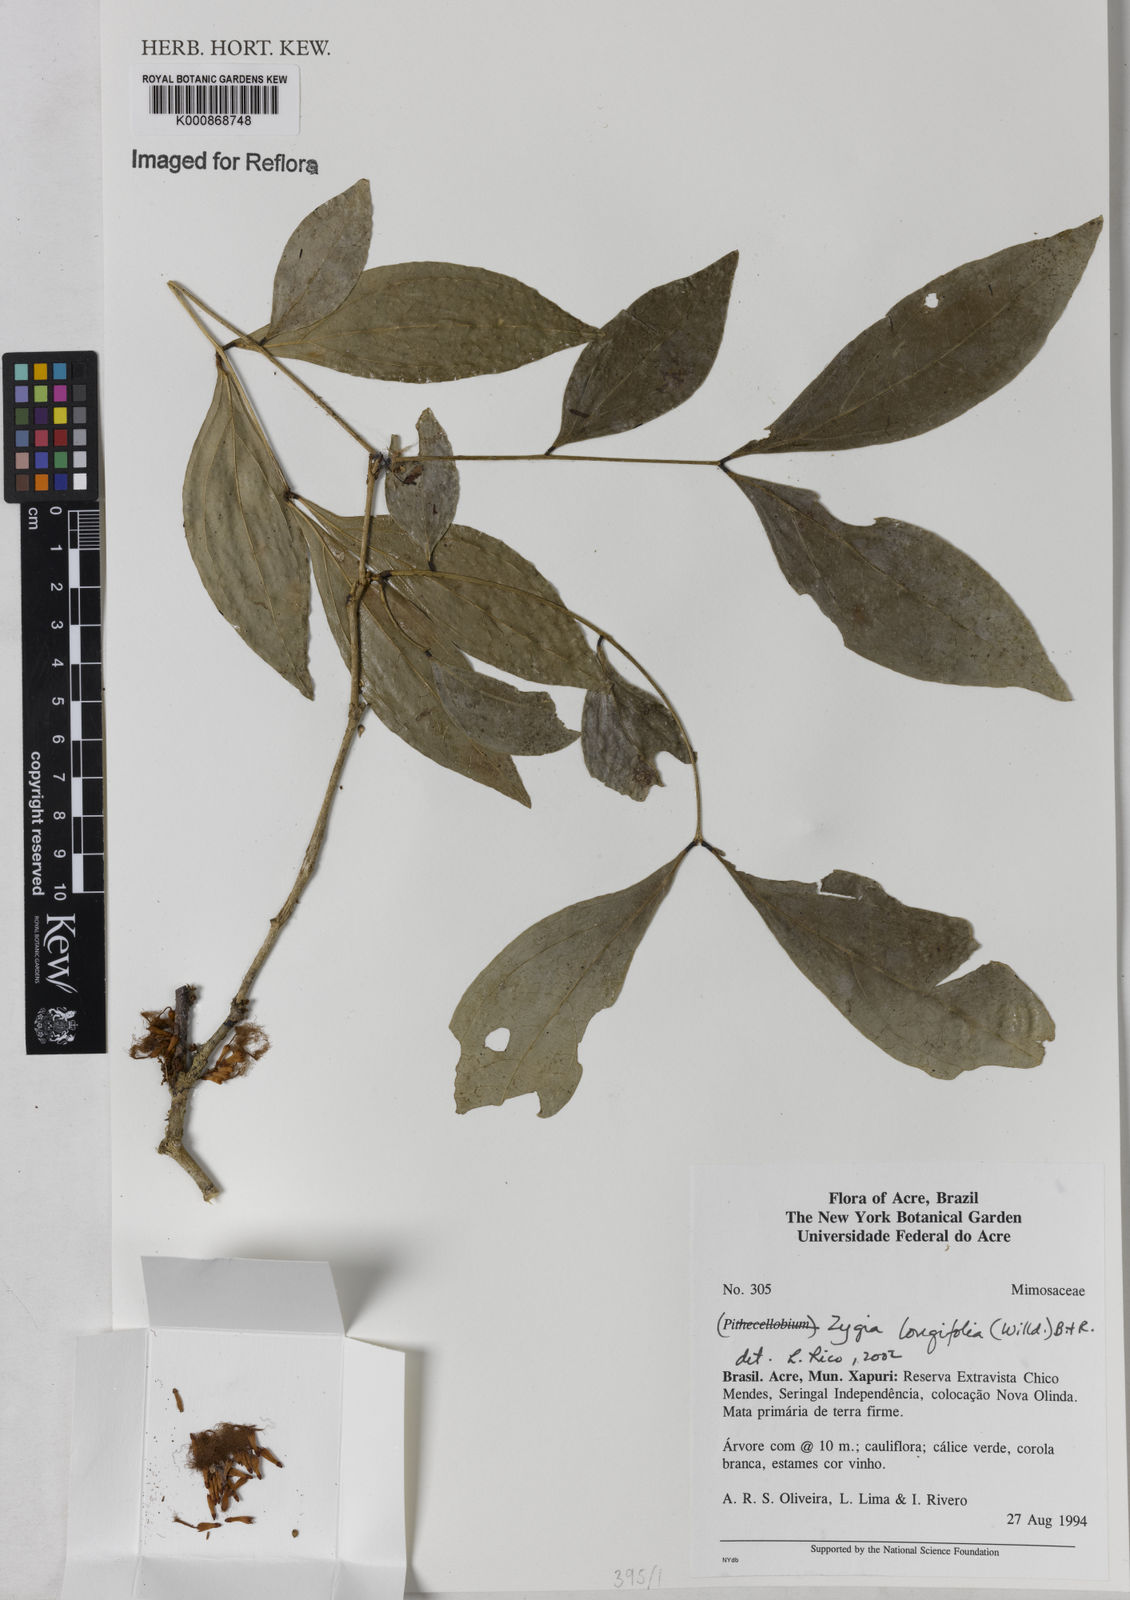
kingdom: Plantae
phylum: Tracheophyta
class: Magnoliopsida
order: Fabales
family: Fabaceae
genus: Zygia
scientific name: Zygia longifolia
